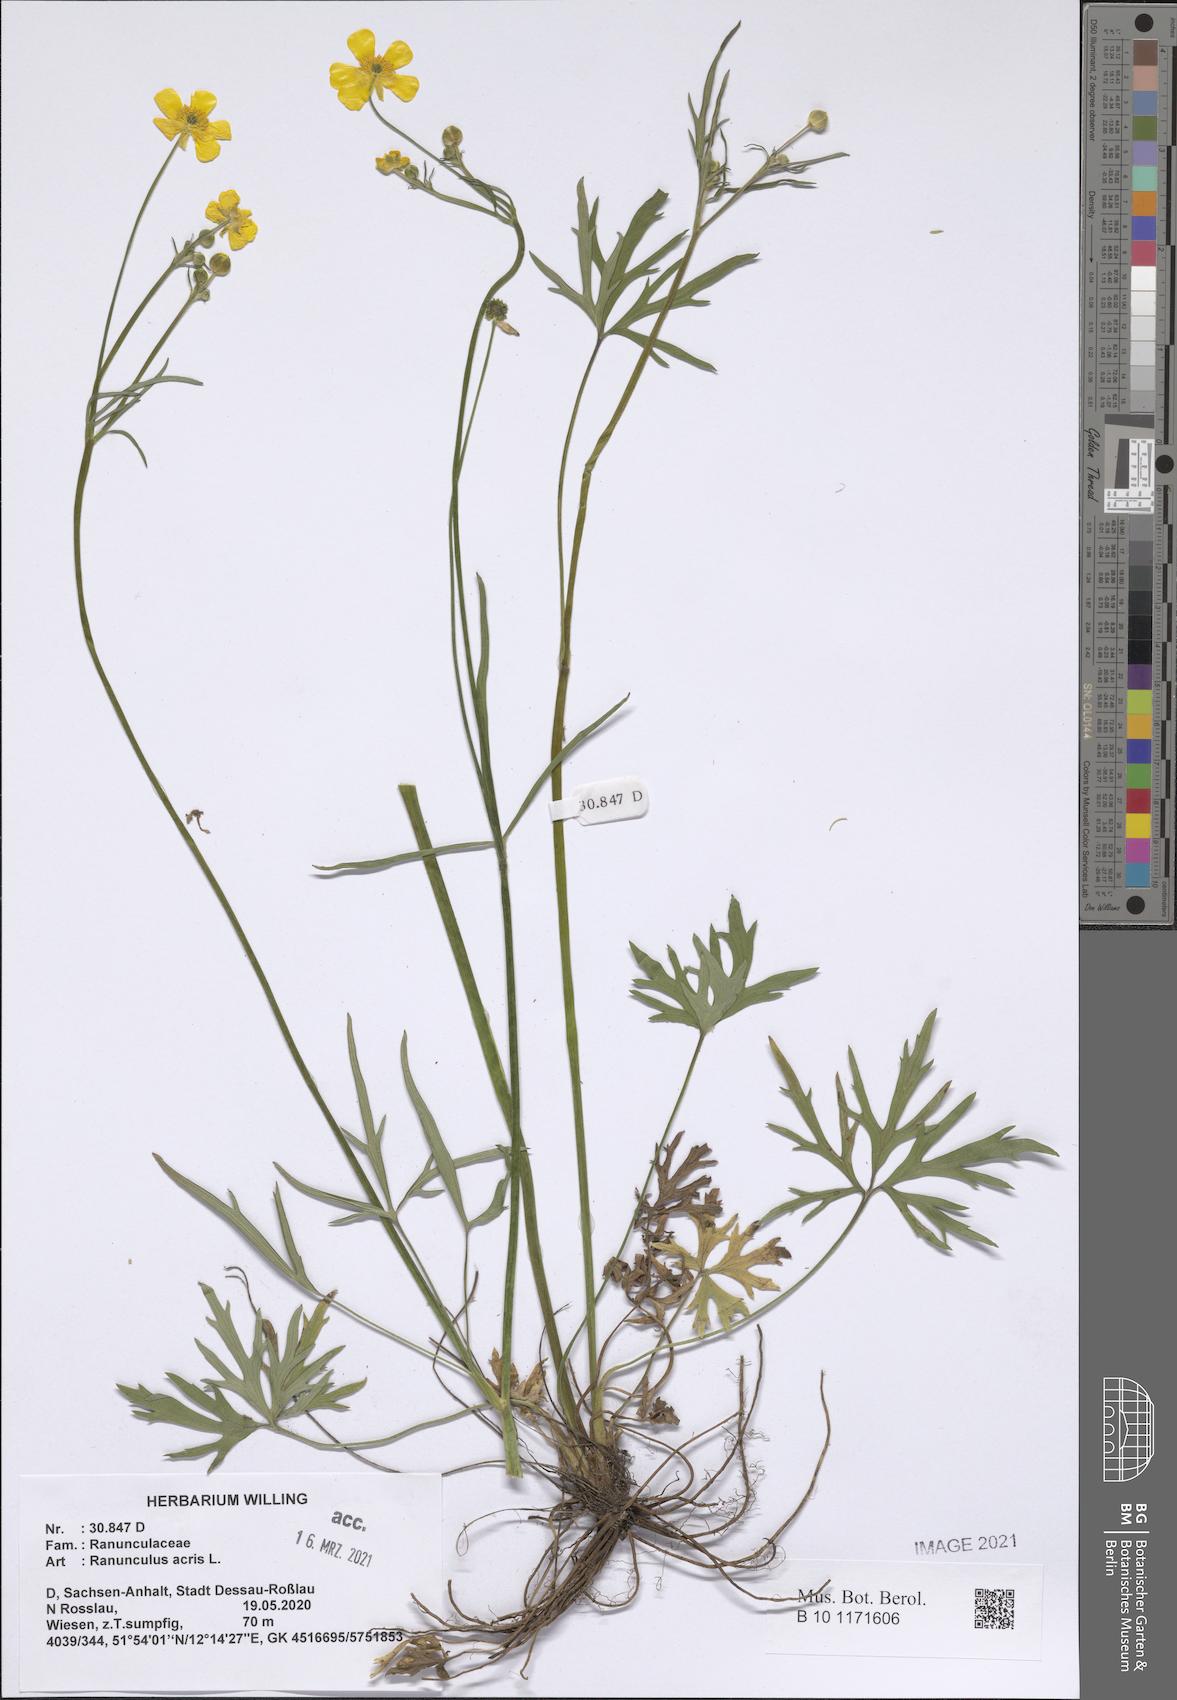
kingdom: Plantae
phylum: Tracheophyta
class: Magnoliopsida
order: Ranunculales
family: Ranunculaceae
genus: Ranunculus
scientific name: Ranunculus acris
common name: Meadow buttercup
